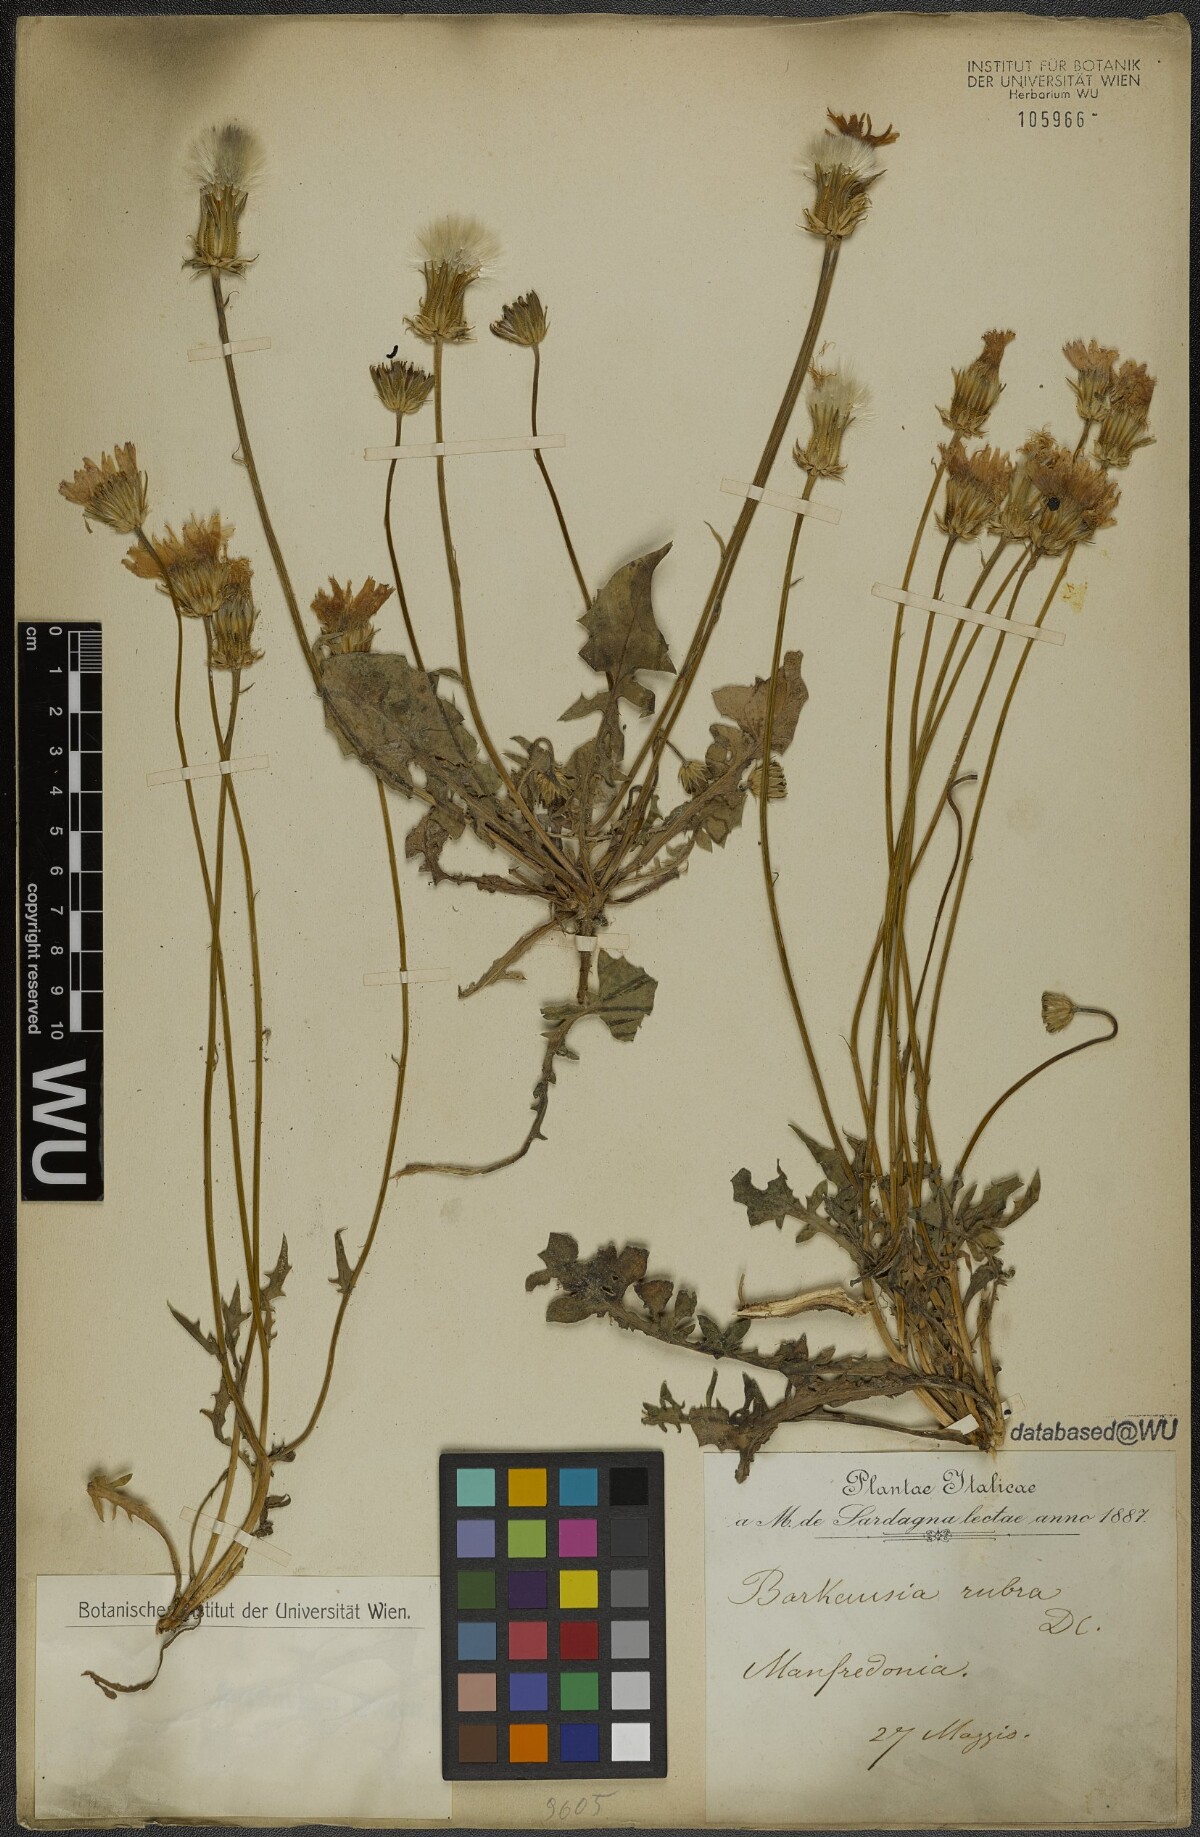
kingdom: Plantae
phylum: Tracheophyta
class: Magnoliopsida
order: Asterales
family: Asteraceae
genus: Crepis
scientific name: Crepis rubra
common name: Pink hawk's-beard
